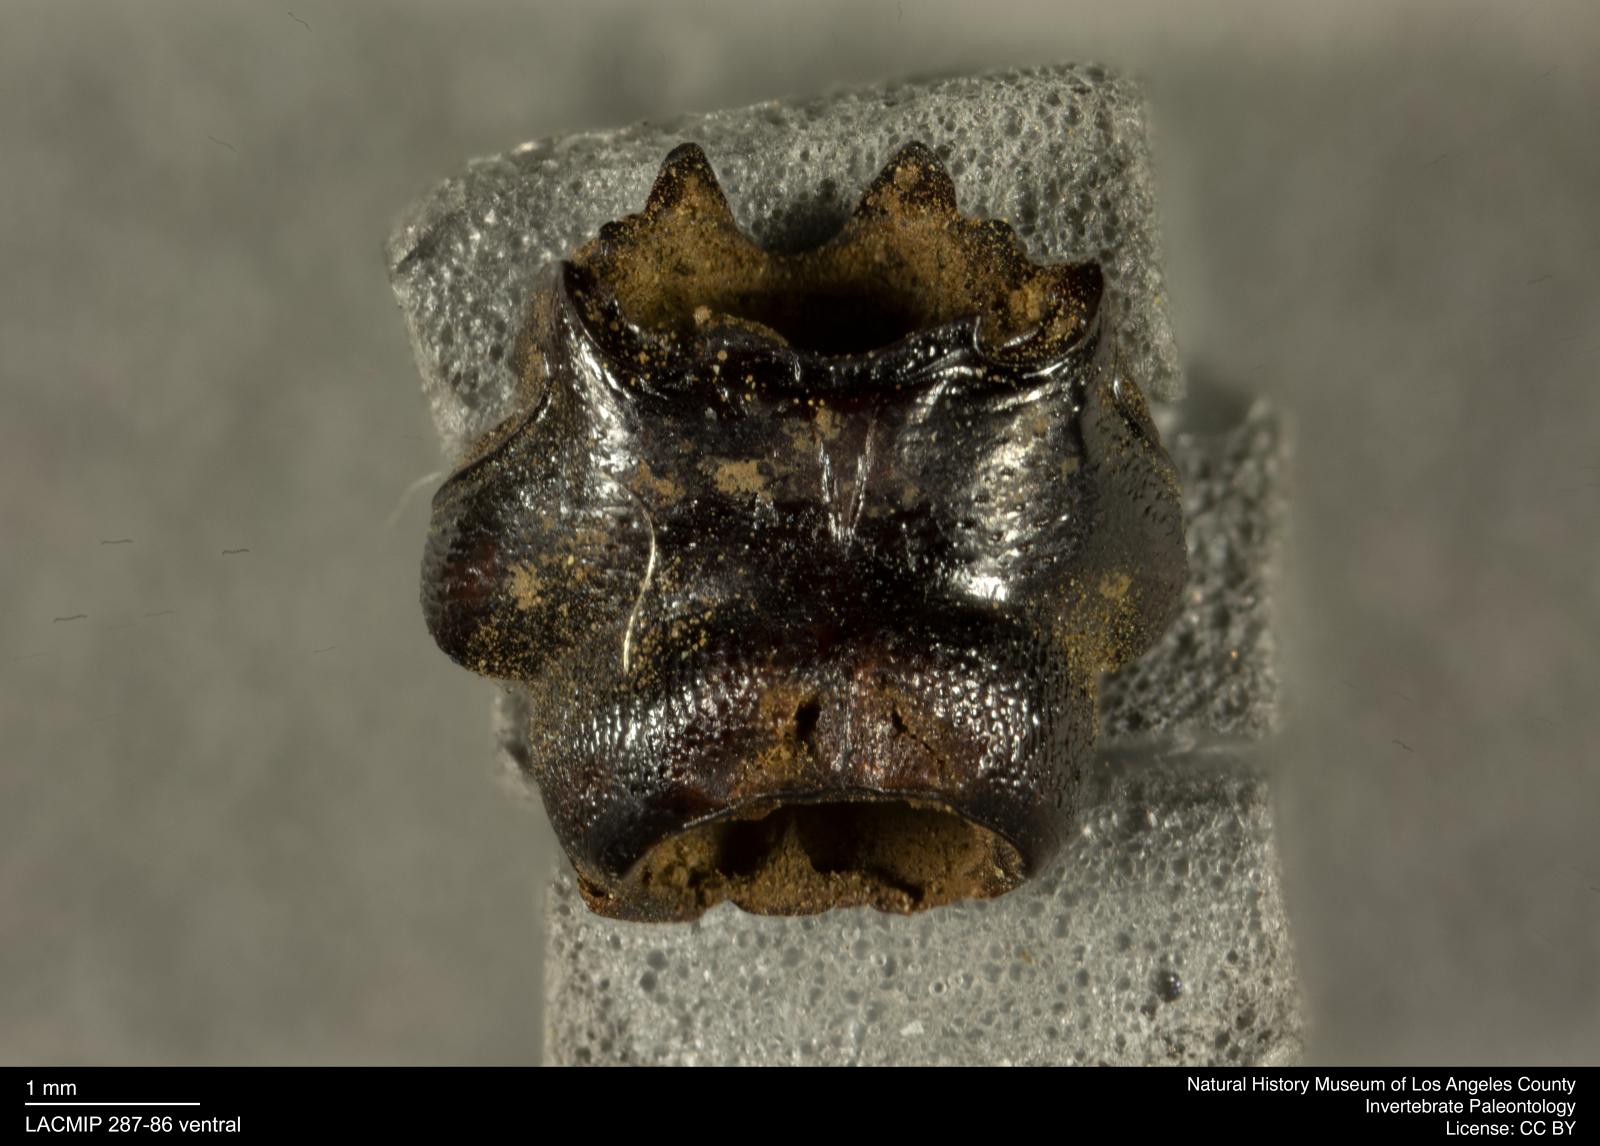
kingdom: Animalia
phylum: Arthropoda
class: Insecta
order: Coleoptera
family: Staphylinidae
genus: Nicrophorus
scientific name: Nicrophorus marginatus
